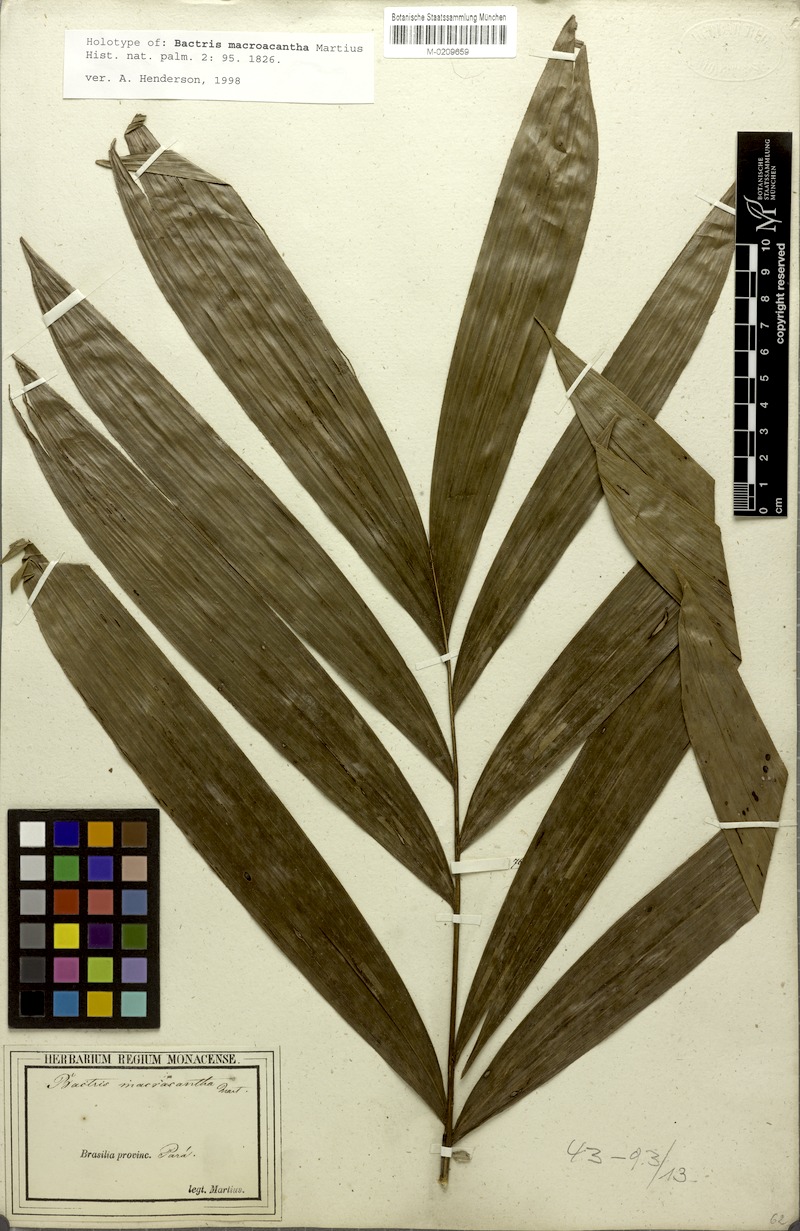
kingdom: Plantae
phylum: Tracheophyta
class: Liliopsida
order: Arecales
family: Arecaceae
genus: Bactris
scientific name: Bactris macroacantha
